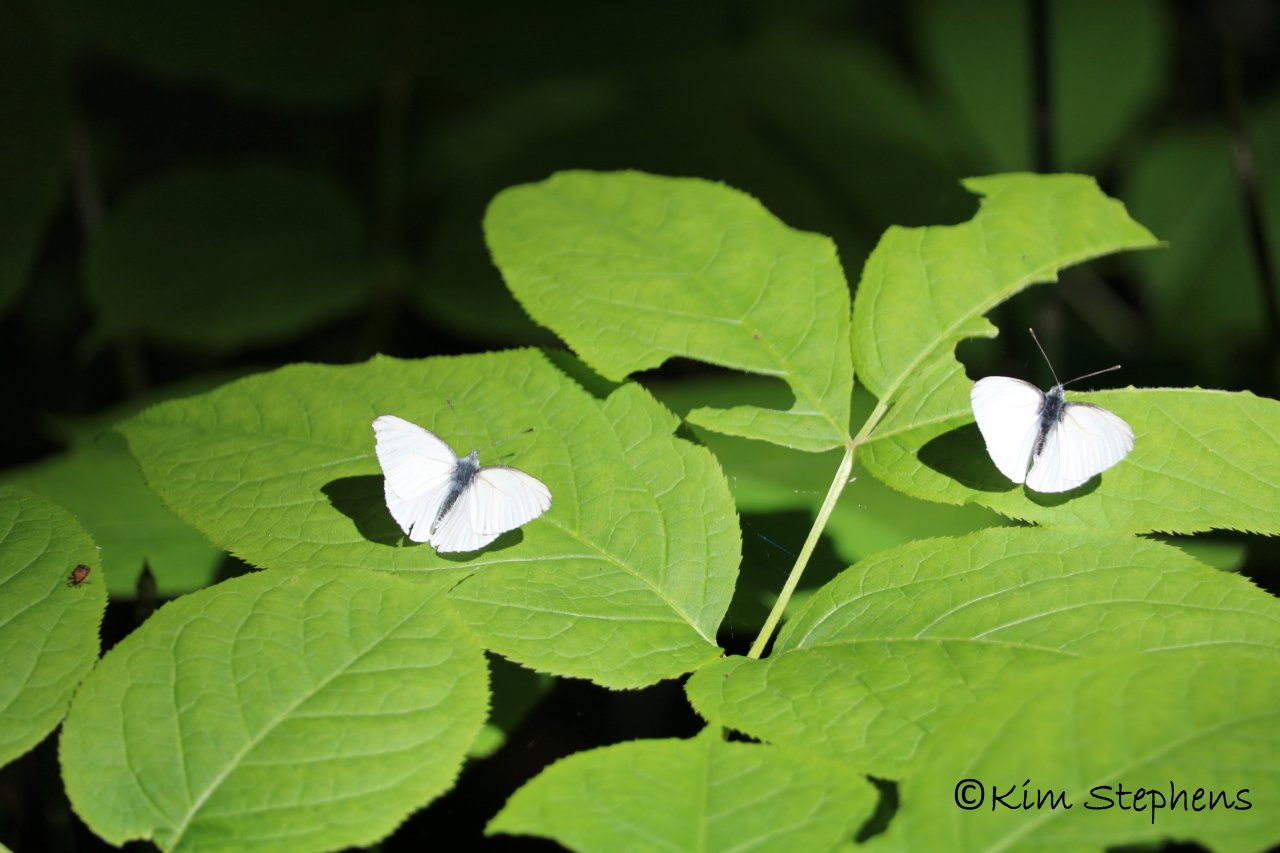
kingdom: Animalia
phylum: Arthropoda
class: Insecta
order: Lepidoptera
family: Pieridae
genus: Pieris
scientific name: Pieris oleracea
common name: Mustard White
